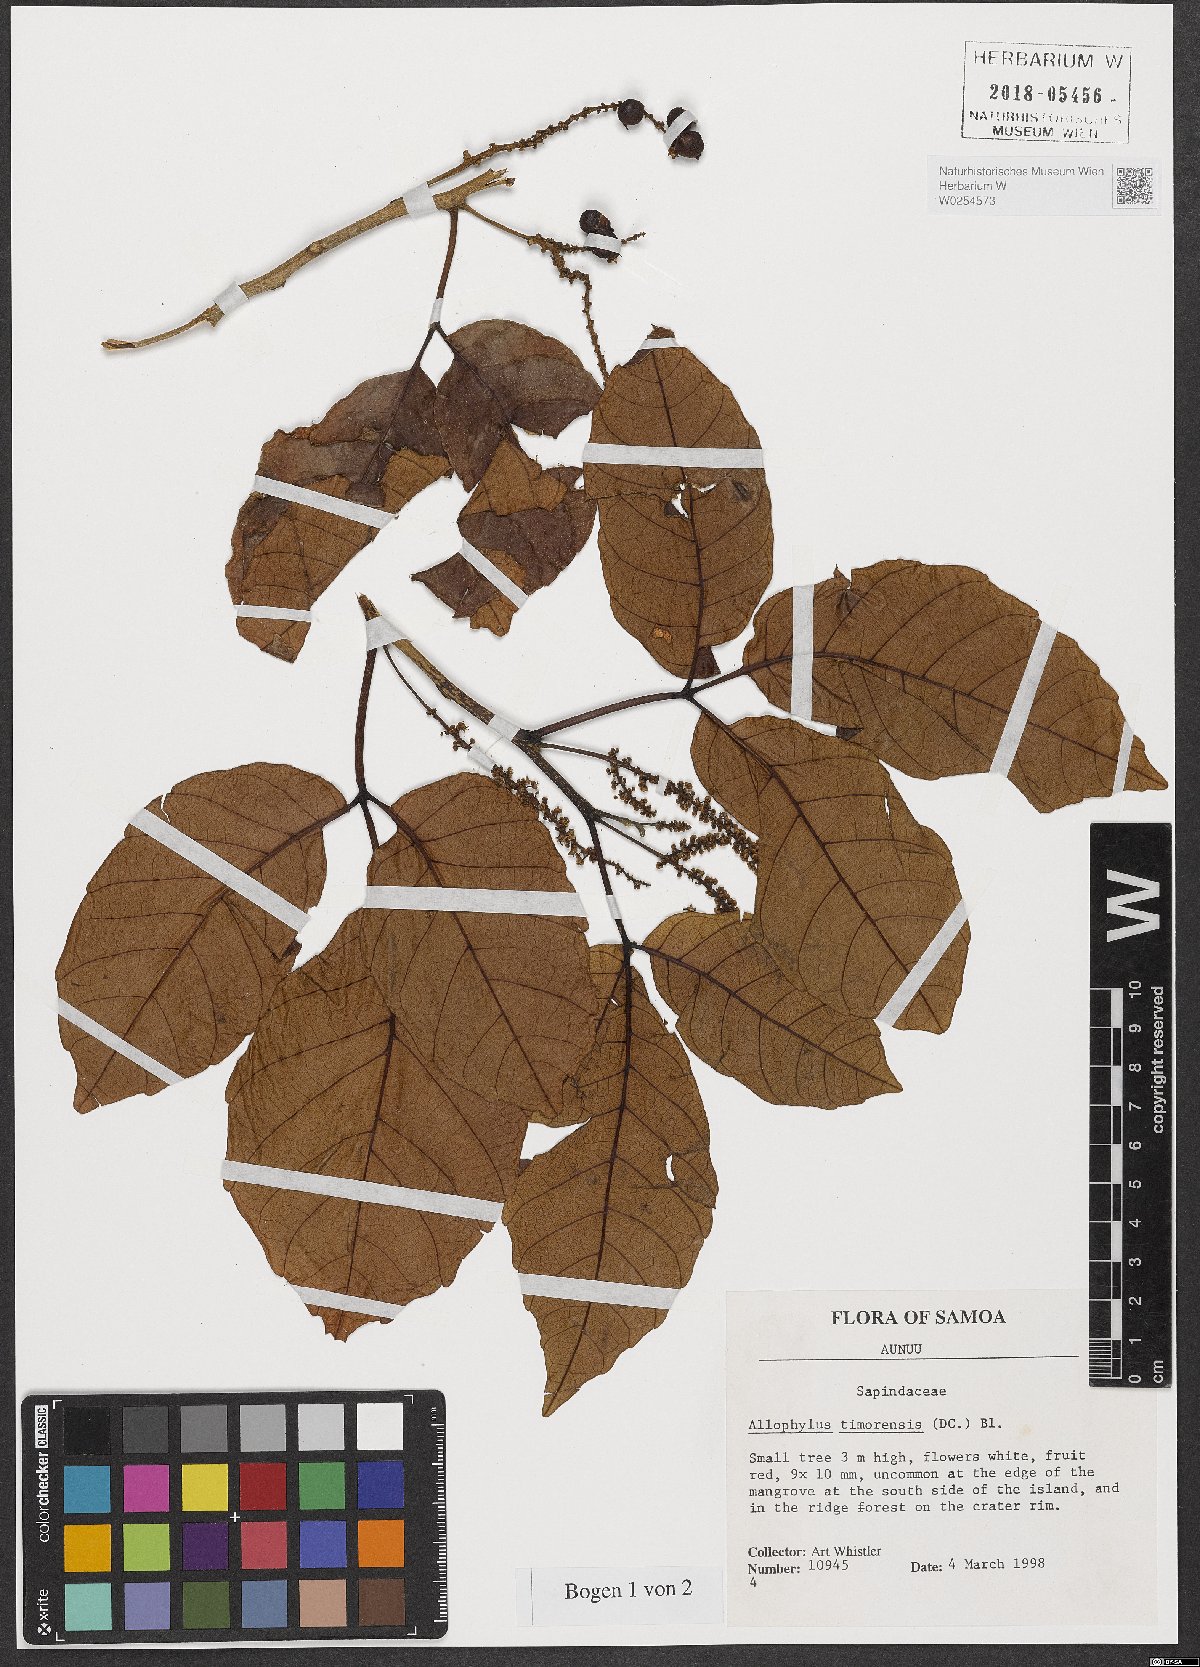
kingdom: Plantae
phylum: Tracheophyta
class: Magnoliopsida
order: Sapindales
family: Sapindaceae
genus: Allophylus
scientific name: Allophylus timorensis
